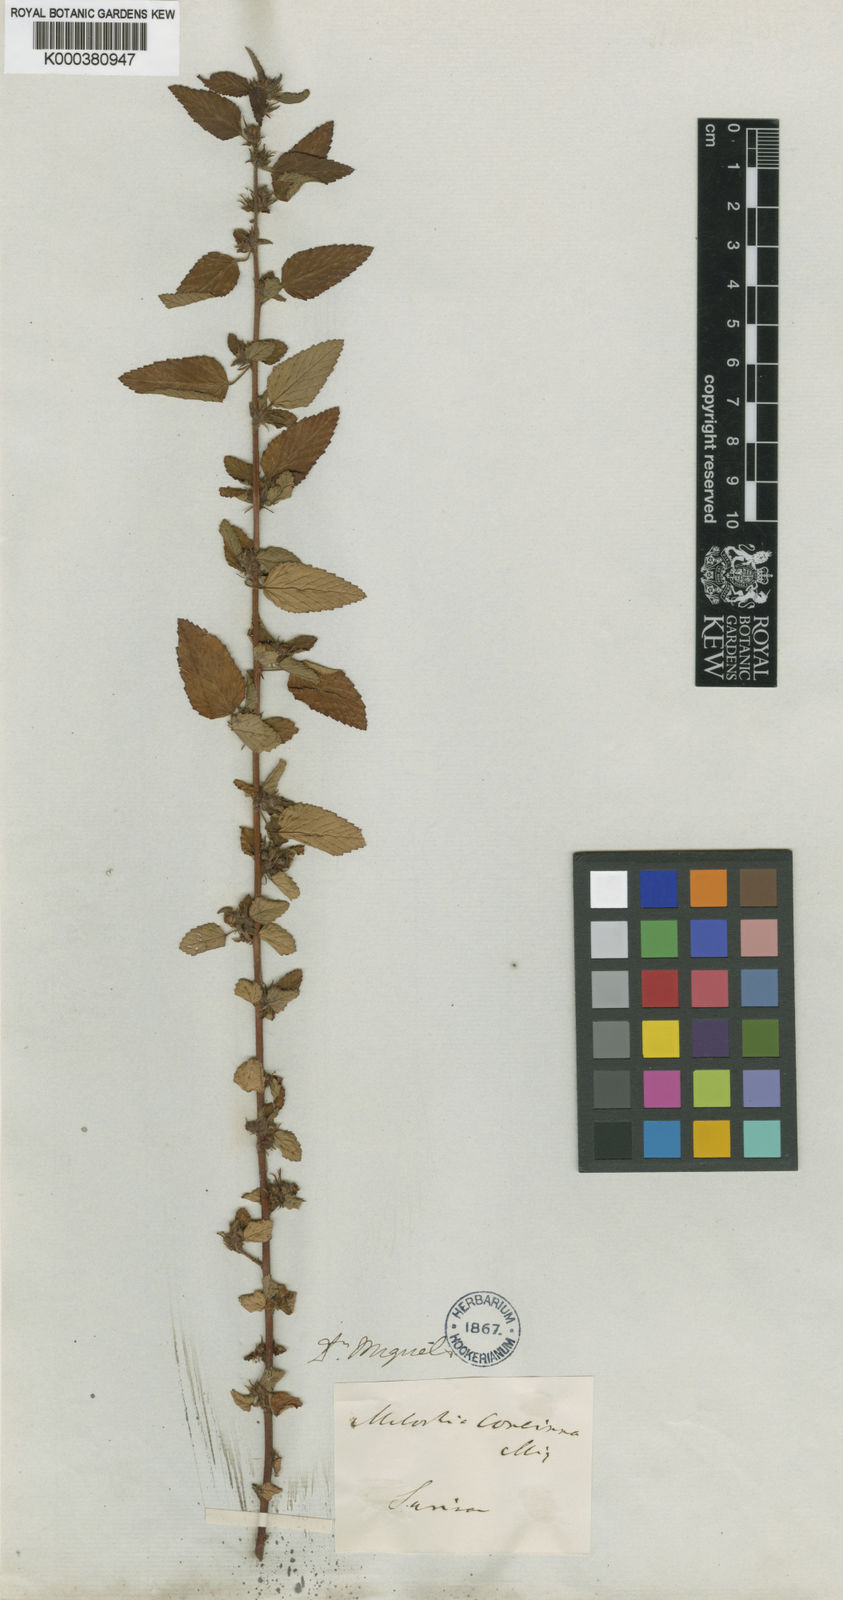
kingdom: Plantae
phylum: Tracheophyta
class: Magnoliopsida
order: Malvales
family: Malvaceae
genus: Melochia
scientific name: Melochia melissifolia
